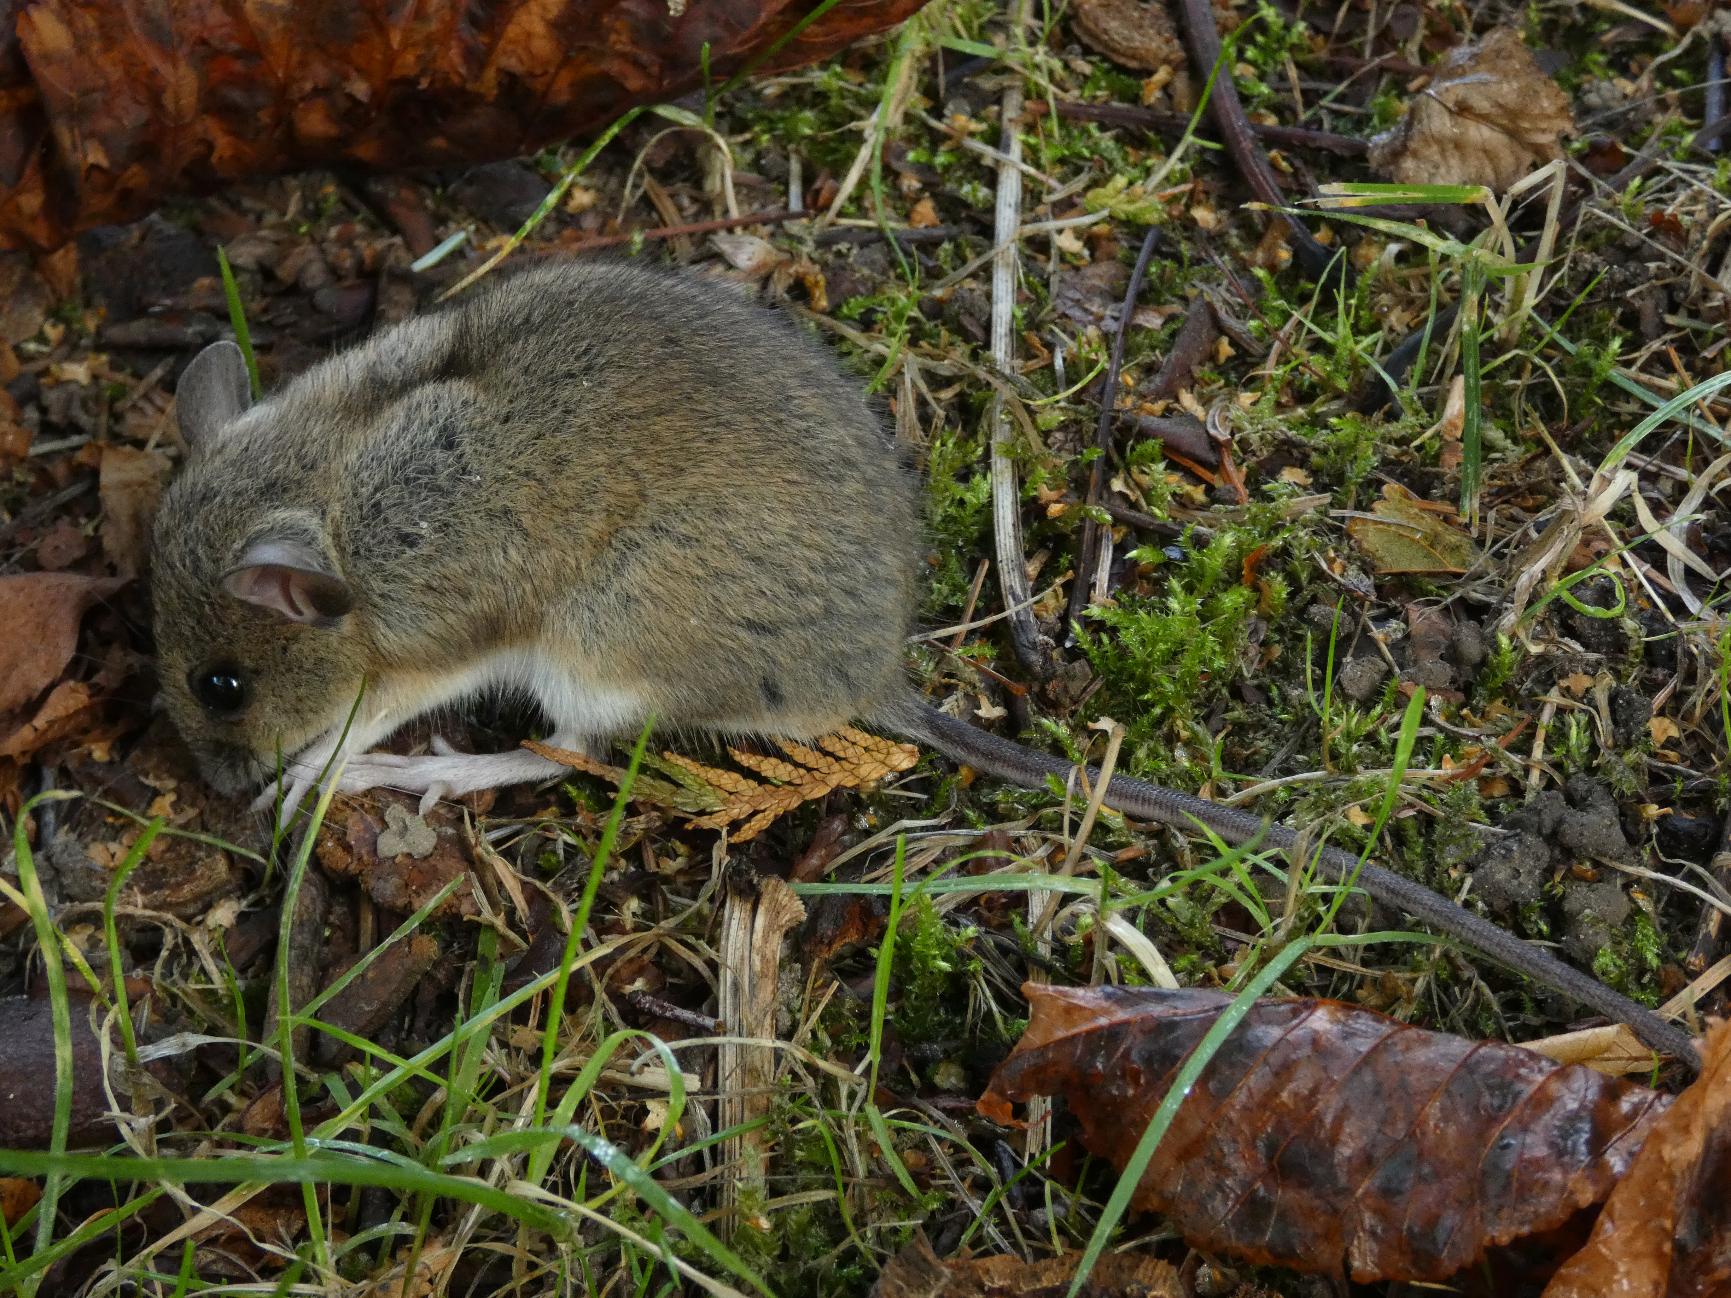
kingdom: Animalia
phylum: Chordata
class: Mammalia
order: Rodentia
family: Muridae
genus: Apodemus
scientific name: Apodemus flavicollis
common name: Halsbåndmus
